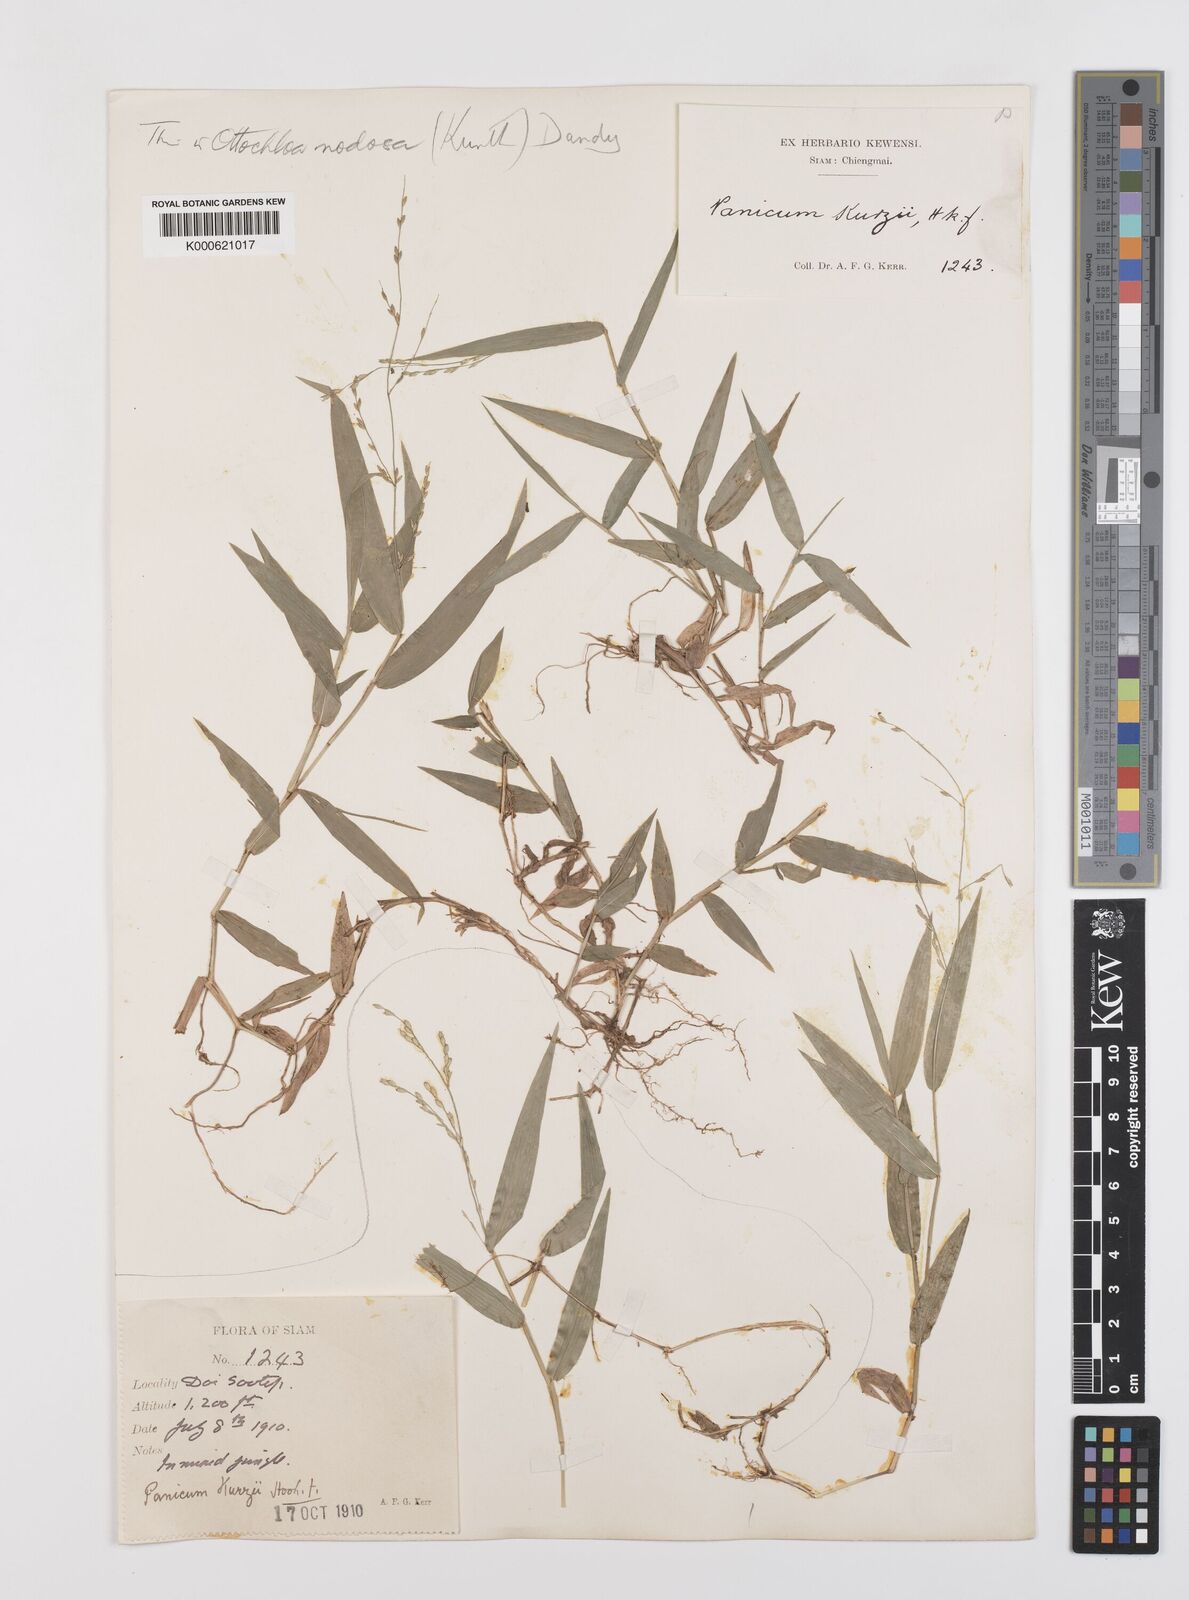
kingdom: Plantae
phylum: Tracheophyta
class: Liliopsida
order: Poales
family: Poaceae
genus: Urochloa
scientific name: Urochloa kurzii
